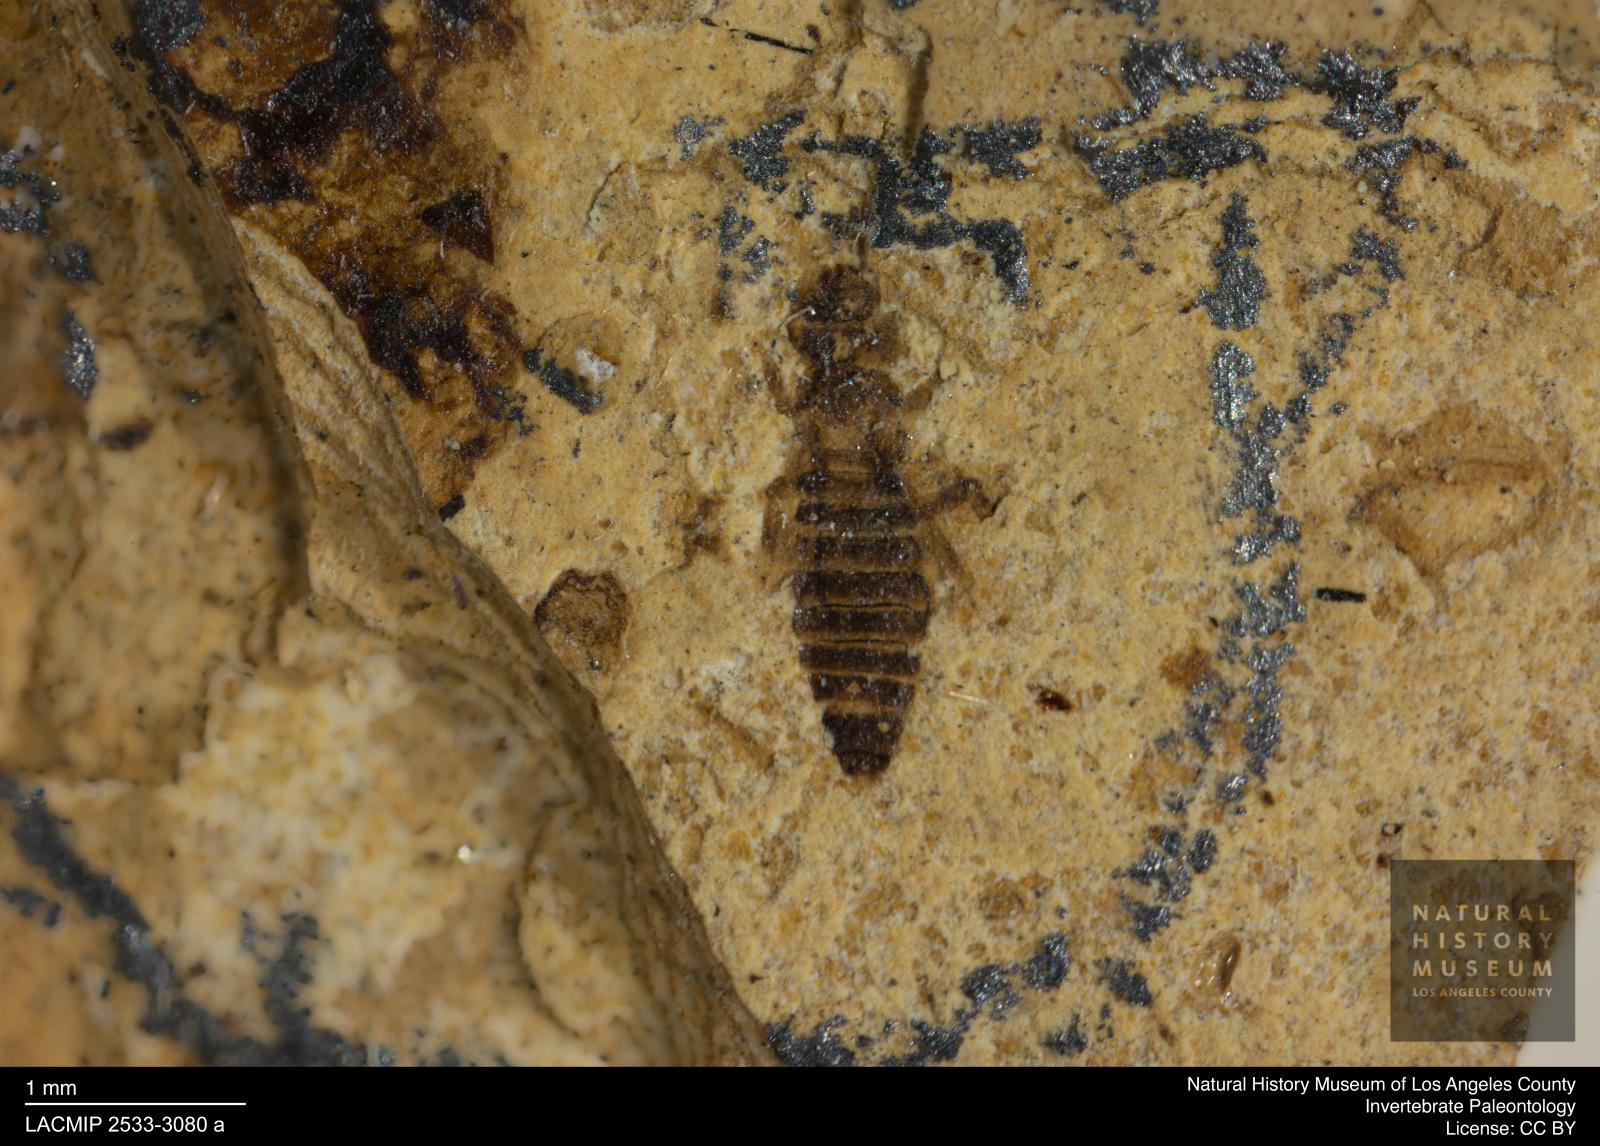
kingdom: Animalia
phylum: Arthropoda
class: Insecta
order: Thysanoptera
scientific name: Thysanoptera
